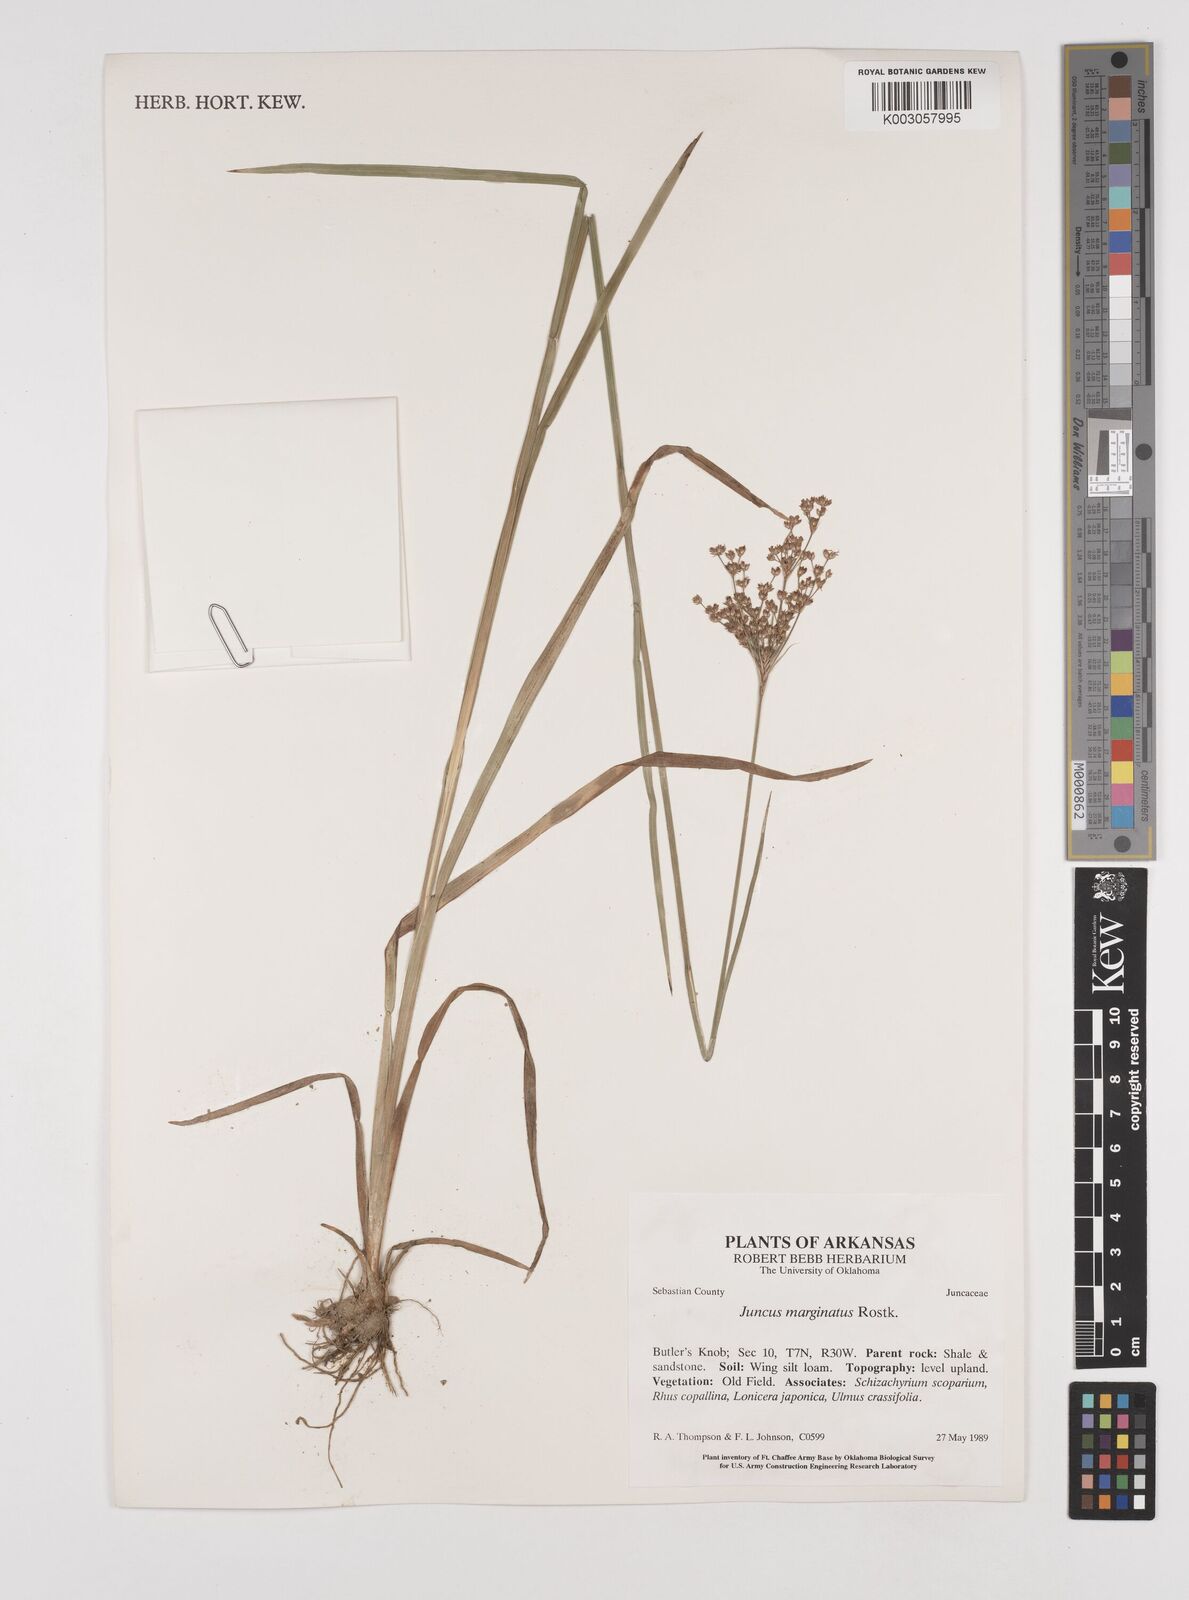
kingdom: Plantae
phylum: Tracheophyta
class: Liliopsida
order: Poales
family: Juncaceae
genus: Juncus
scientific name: Juncus marginatus
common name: Grass-leaf rush
